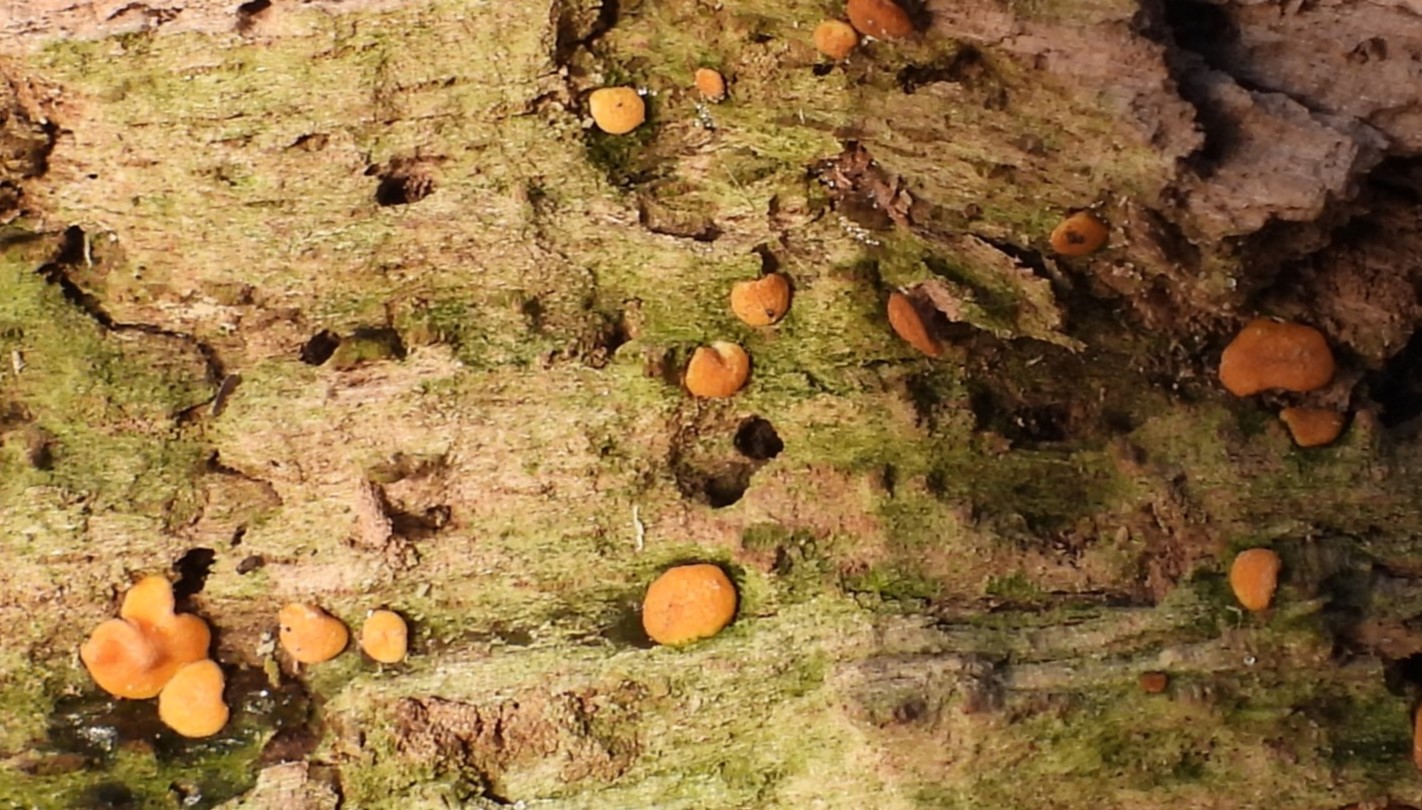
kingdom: Fungi
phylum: Ascomycota
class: Sordariomycetes
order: Hypocreales
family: Hypocreaceae
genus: Trichoderma
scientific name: Trichoderma aureoviride
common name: æggegul kødkerne
